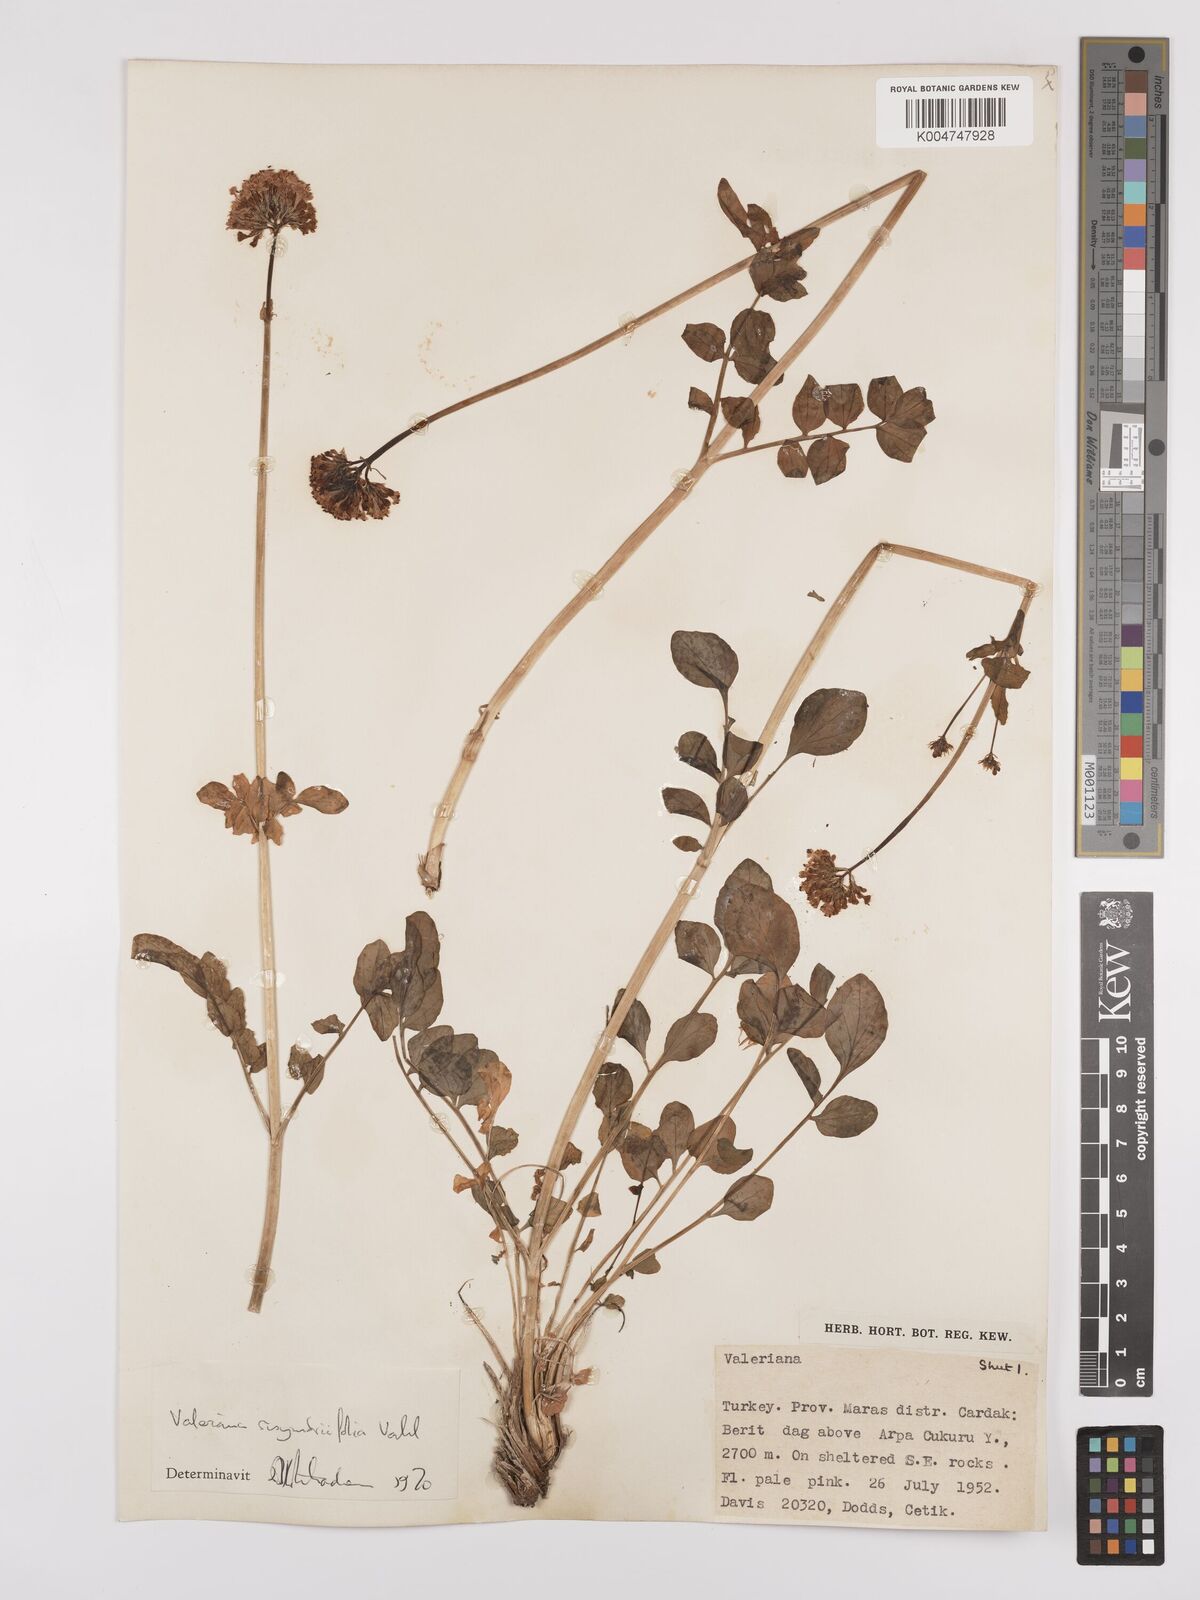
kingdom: Plantae
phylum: Tracheophyta
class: Magnoliopsida
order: Dipsacales
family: Caprifoliaceae
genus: Valeriana
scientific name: Valeriana
